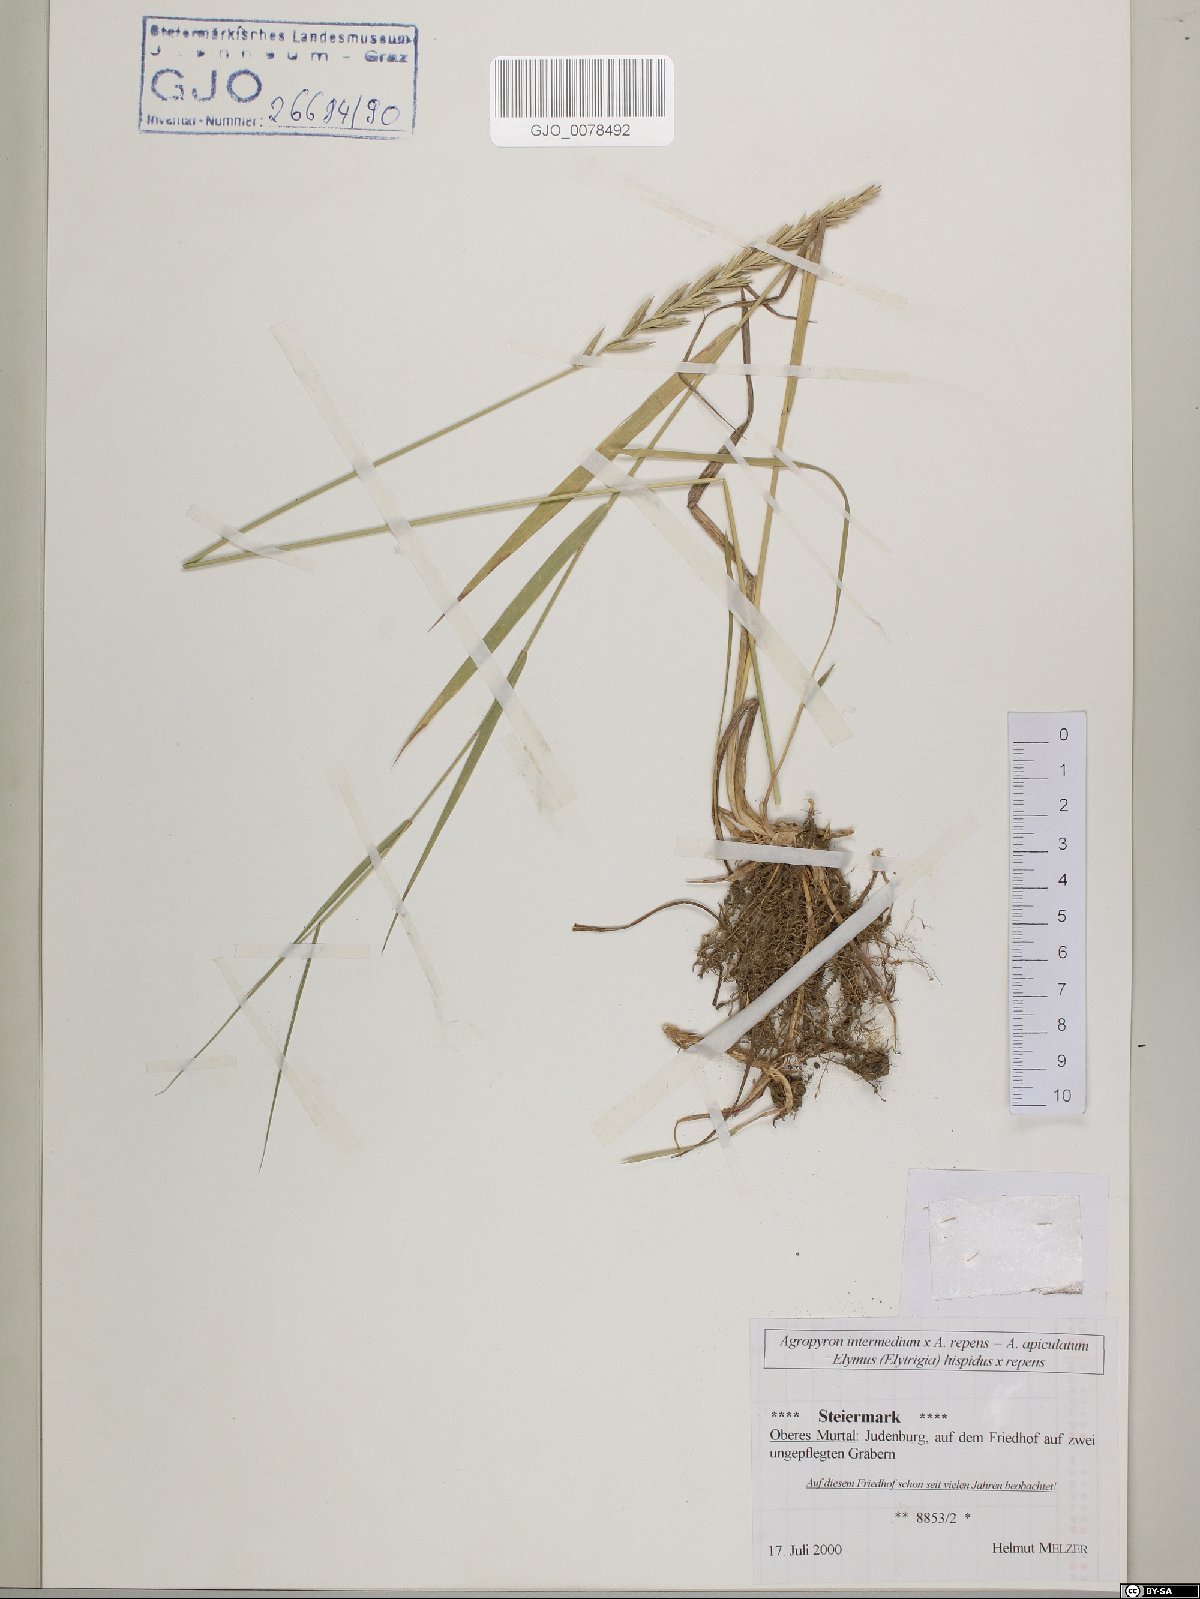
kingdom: Plantae
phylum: Tracheophyta
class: Liliopsida
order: Poales
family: Poaceae
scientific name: Poaceae
